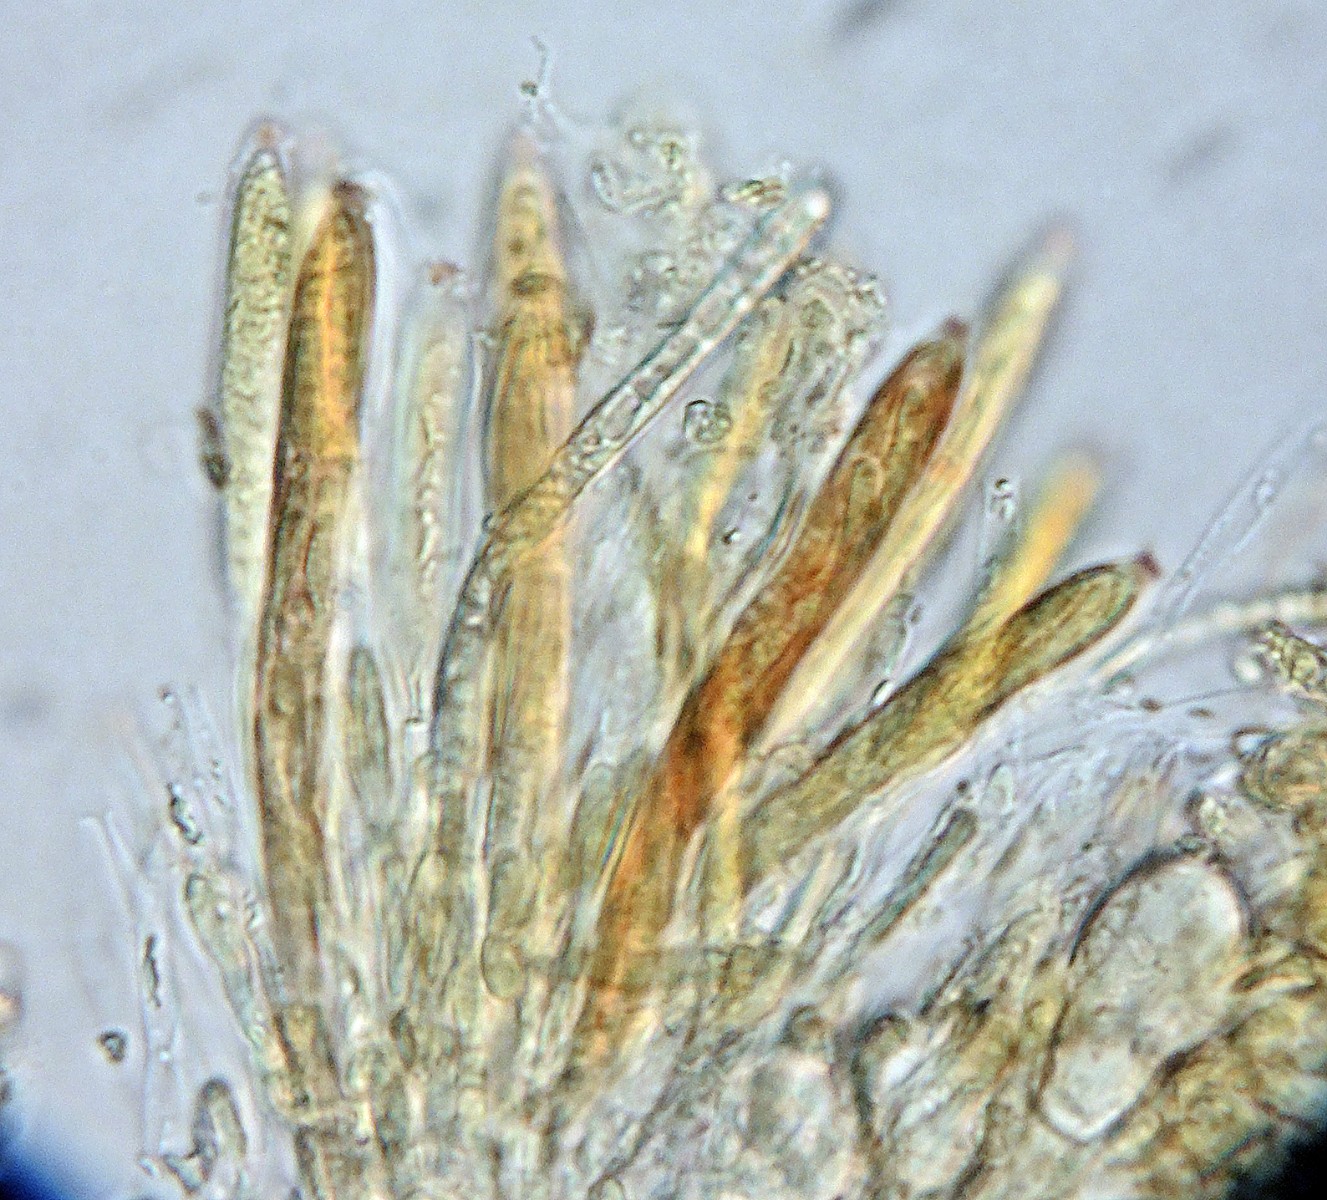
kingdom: Fungi
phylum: Ascomycota
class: Leotiomycetes
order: Helotiales
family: Mollisiaceae
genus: Mollisia
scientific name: Mollisia
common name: gråskive
